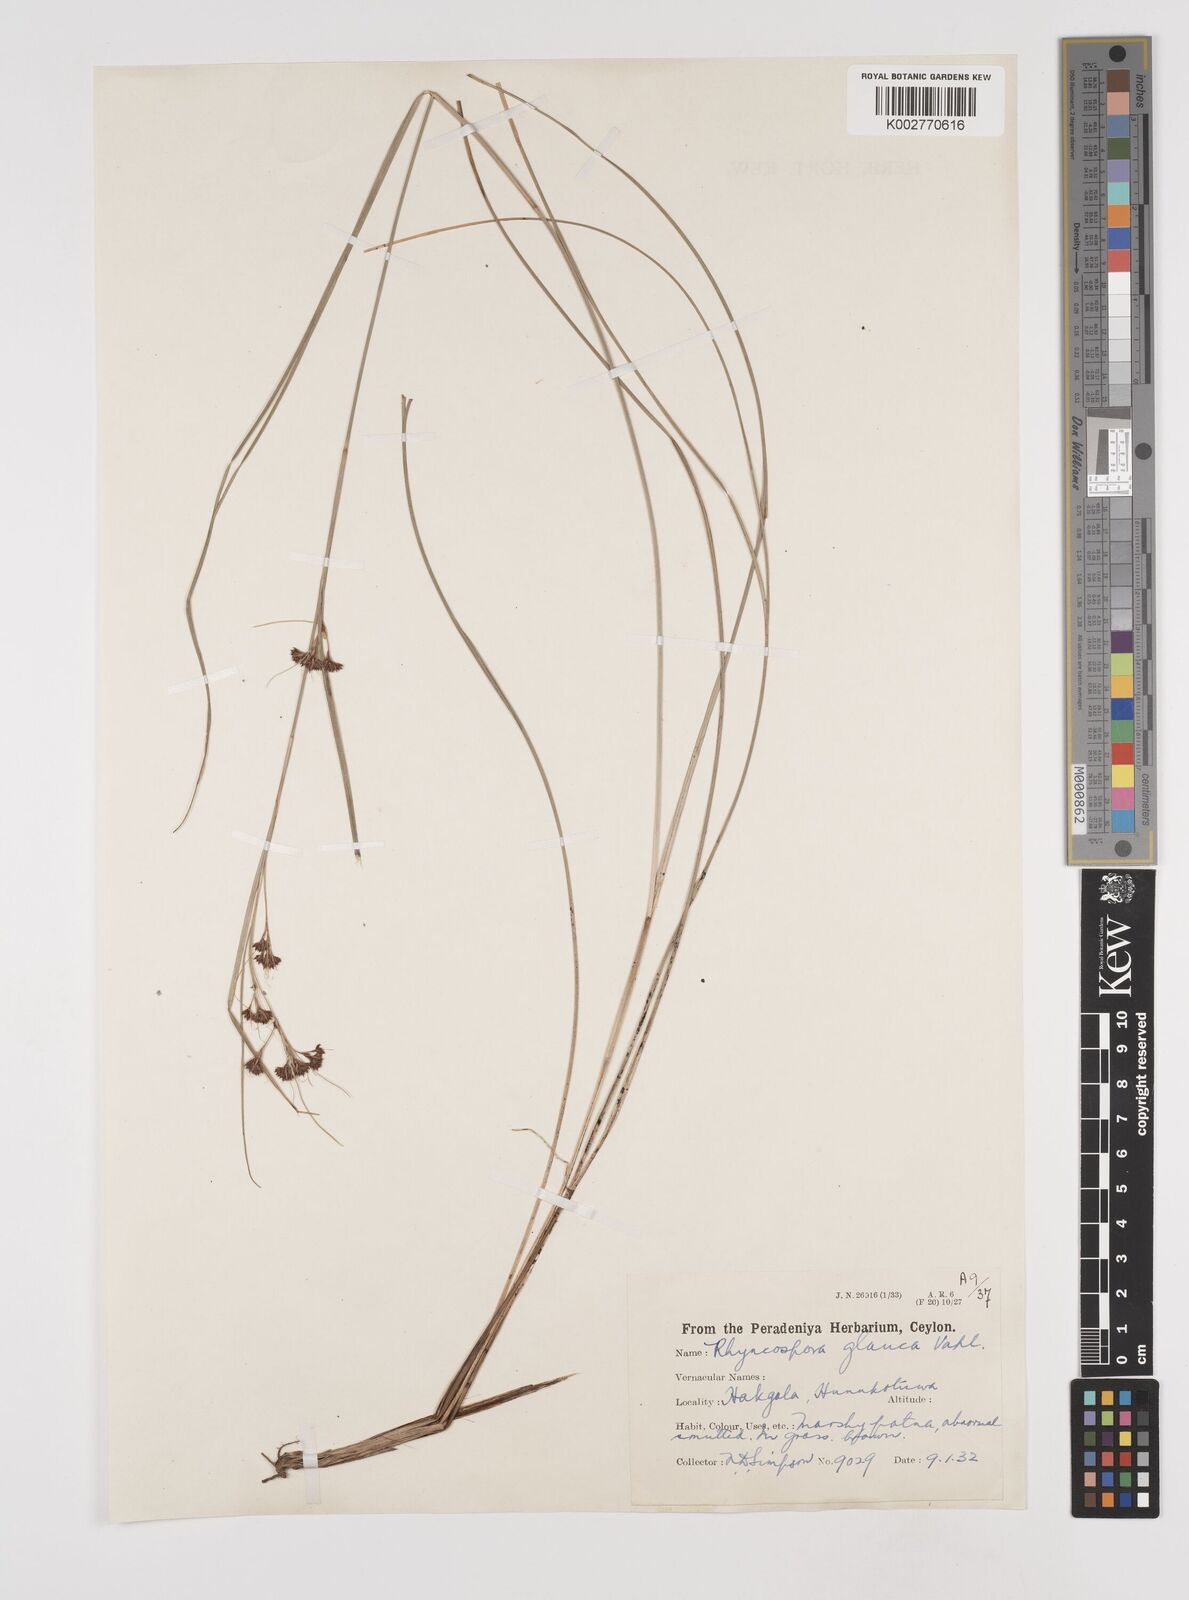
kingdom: Plantae
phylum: Tracheophyta
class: Liliopsida
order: Poales
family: Cyperaceae
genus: Rhynchospora
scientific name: Rhynchospora rugosa
